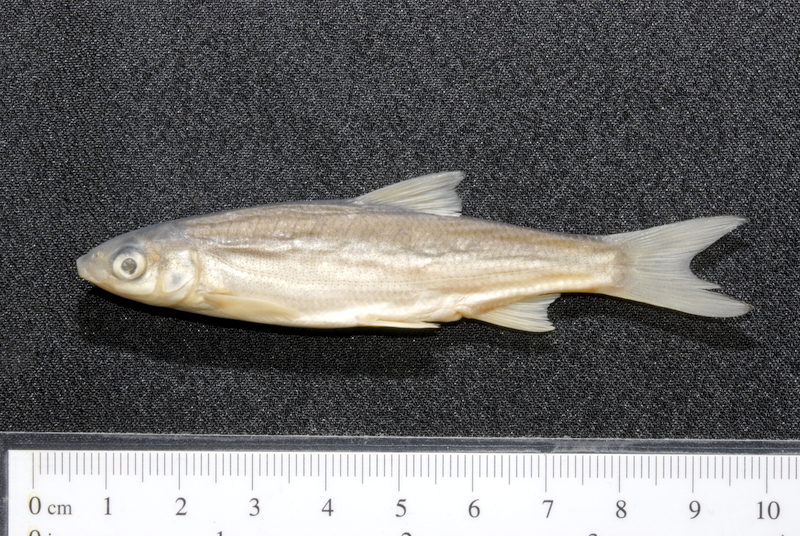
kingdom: Animalia
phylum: Chordata
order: Cypriniformes
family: Cyprinidae
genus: Chondrostoma
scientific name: Chondrostoma nasus
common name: Nase
